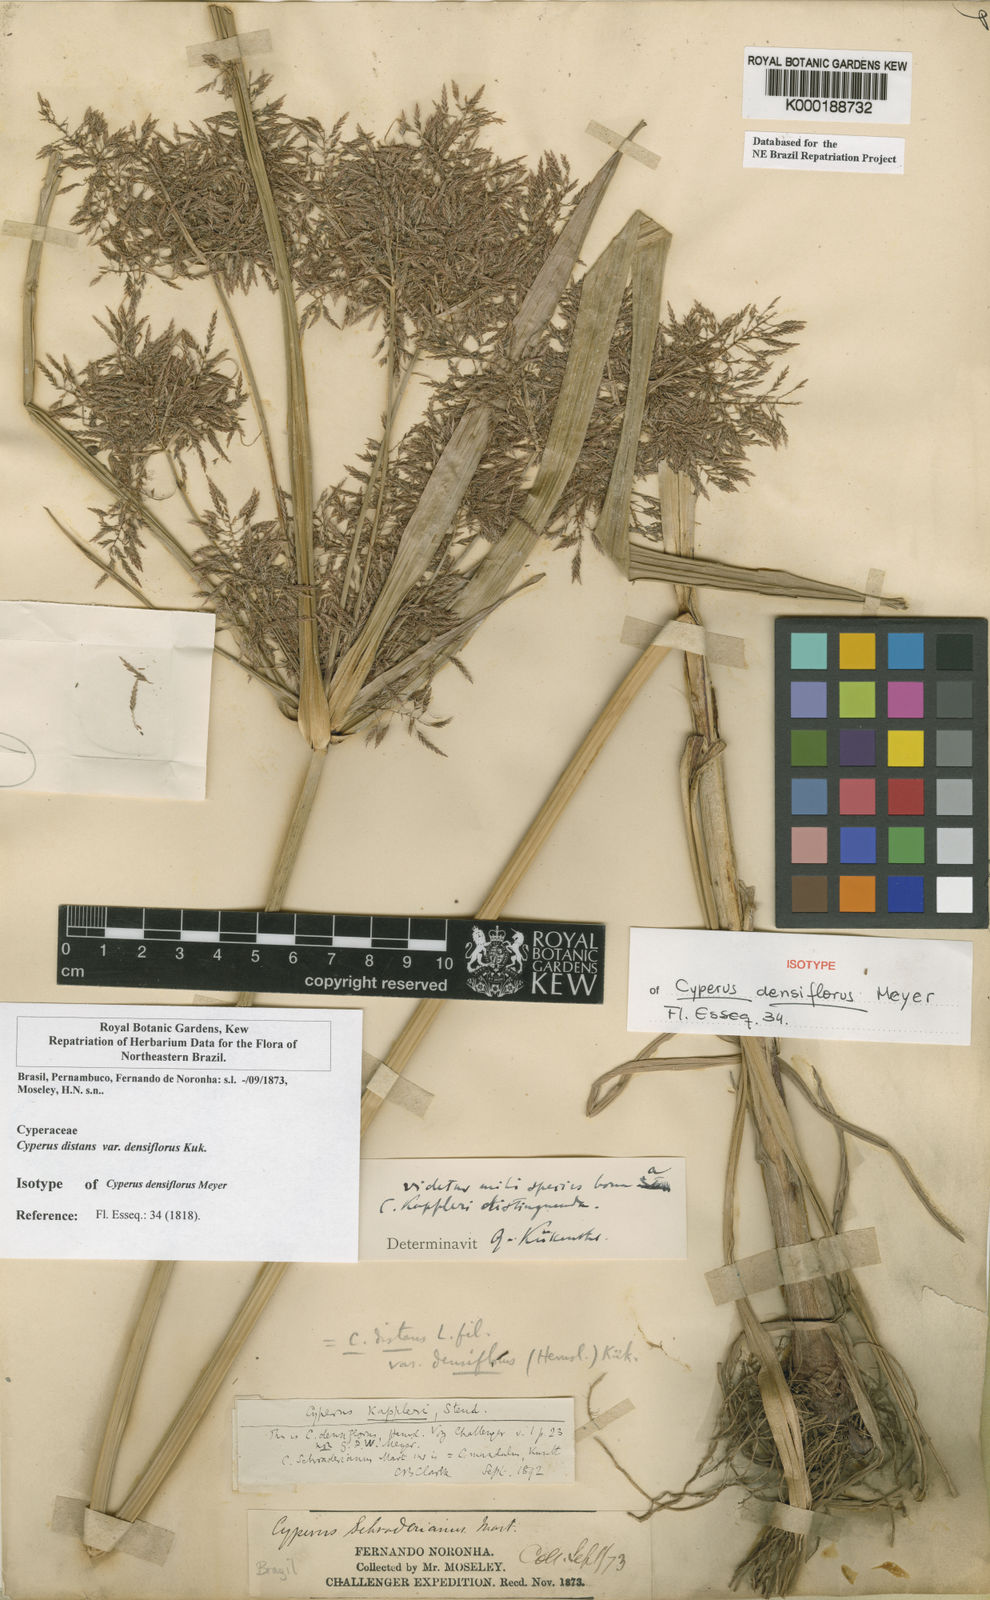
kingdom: Plantae
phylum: Tracheophyta
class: Liliopsida
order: Poales
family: Cyperaceae
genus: Cyperus
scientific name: Cyperus
